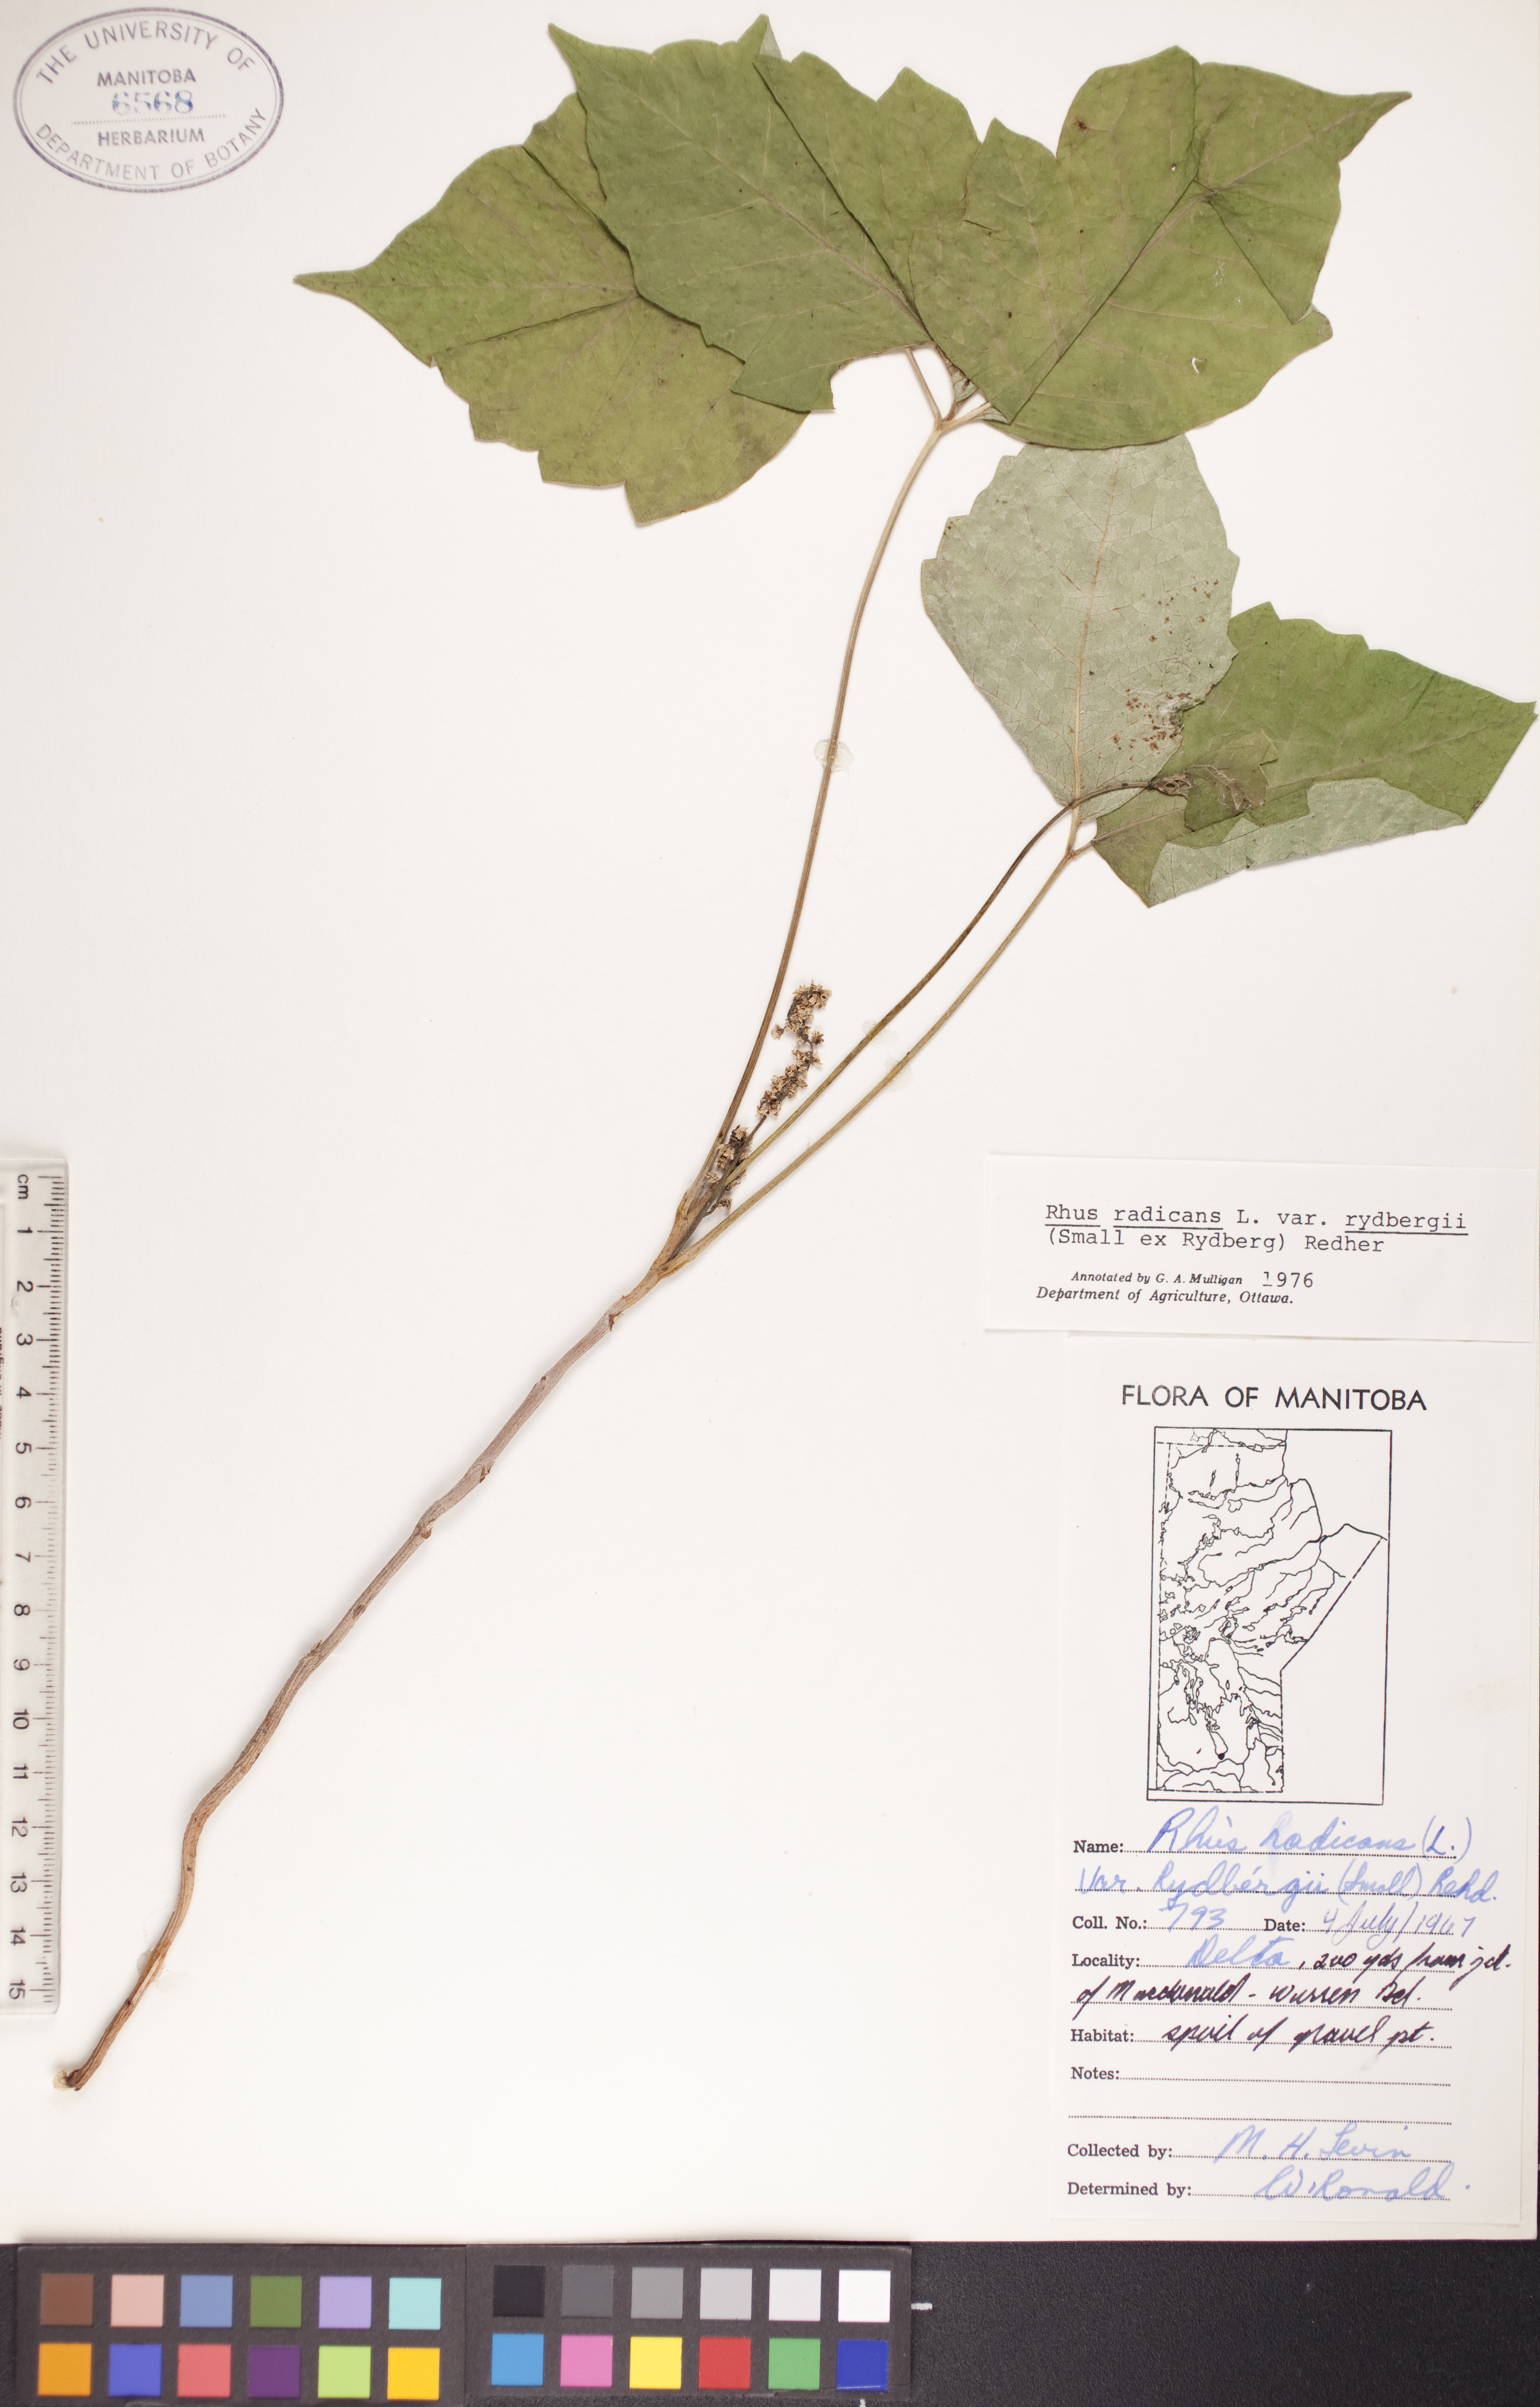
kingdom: Plantae
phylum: Tracheophyta
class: Magnoliopsida
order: Sapindales
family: Anacardiaceae
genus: Toxicodendron
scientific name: Toxicodendron rydbergii
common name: Rydberg's poison-ivy
